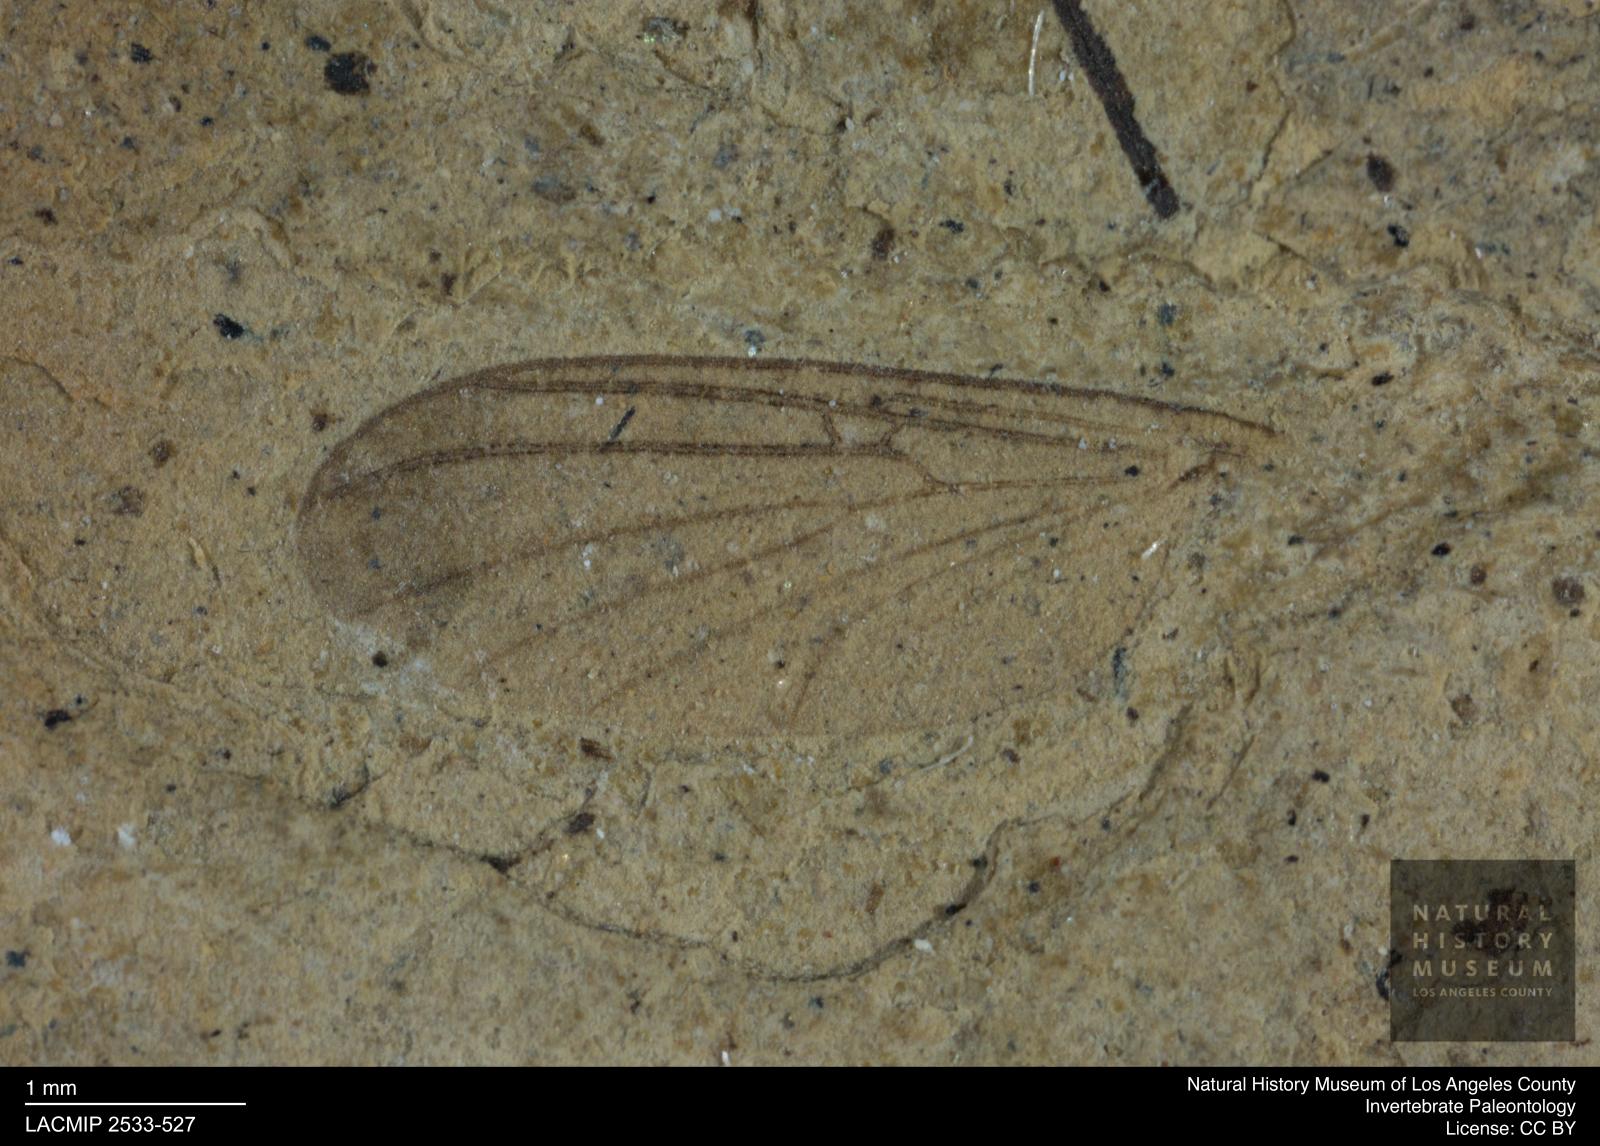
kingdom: Animalia
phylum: Arthropoda
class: Insecta
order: Diptera
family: Mycetophilidae
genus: Mycomya
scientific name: Mycomya
